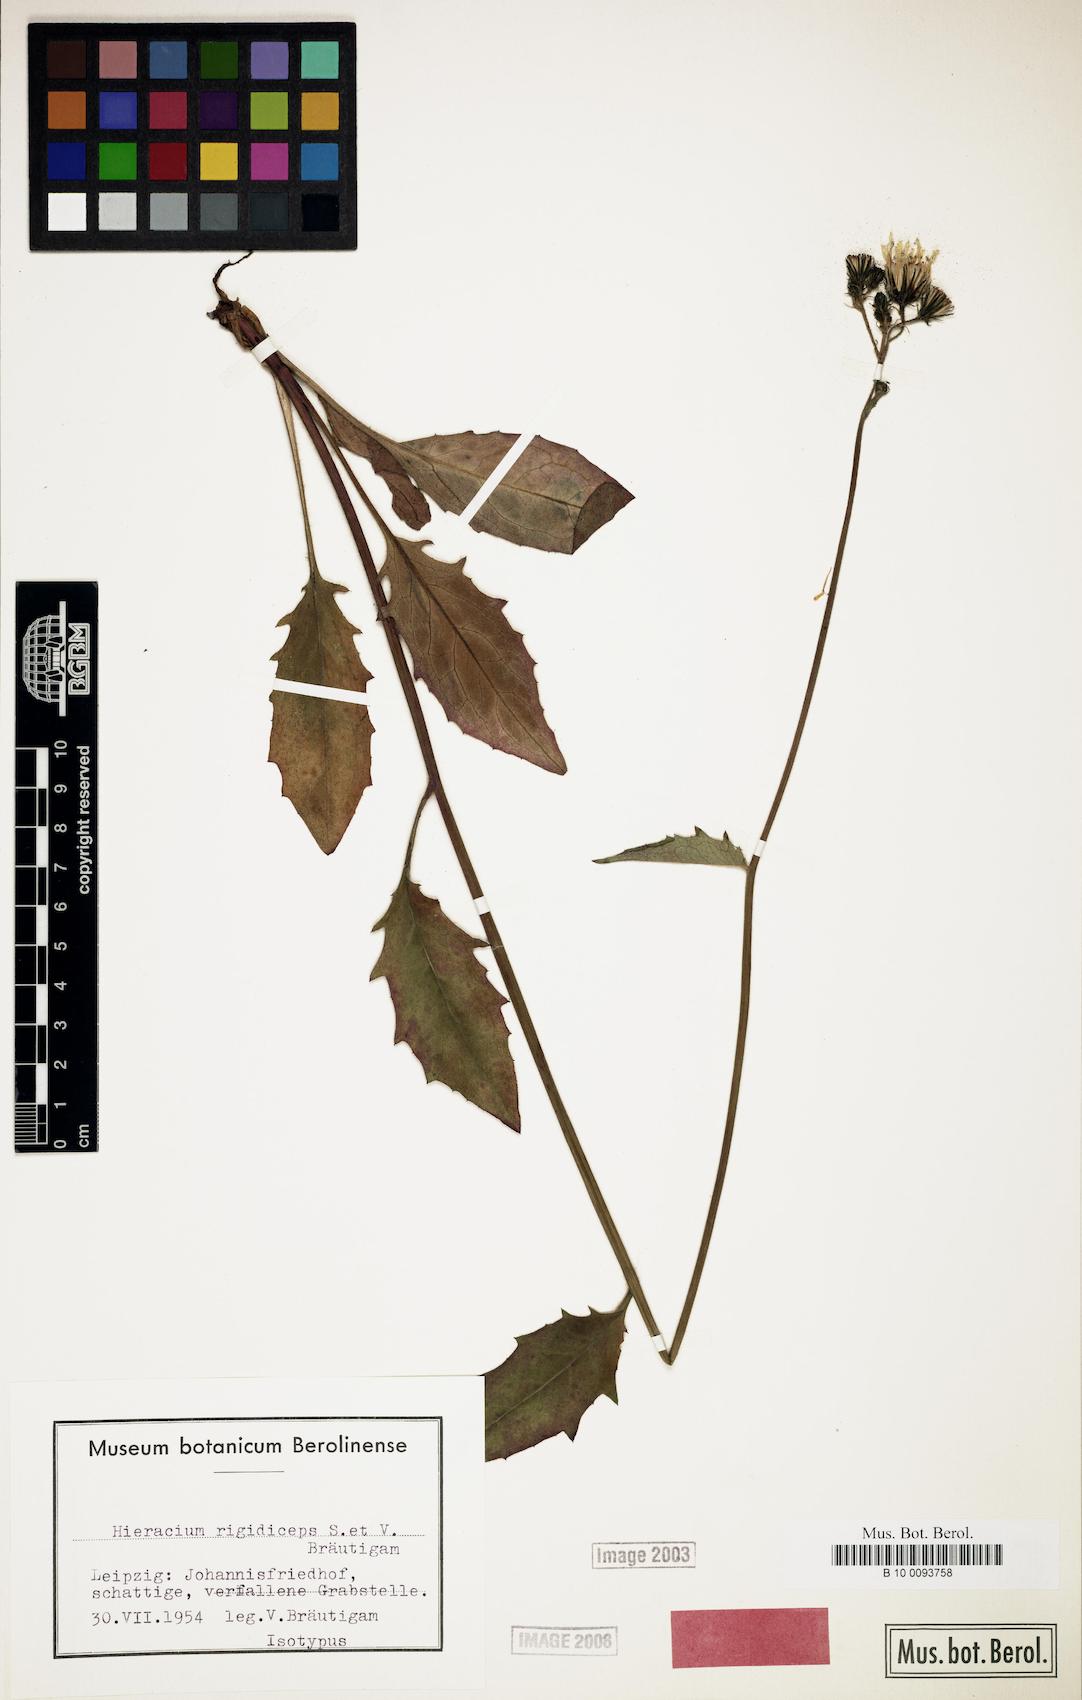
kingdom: Plantae
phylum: Tracheophyta
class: Magnoliopsida
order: Asterales
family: Asteraceae
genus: Hieracium
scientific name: Hieracium maculatum
